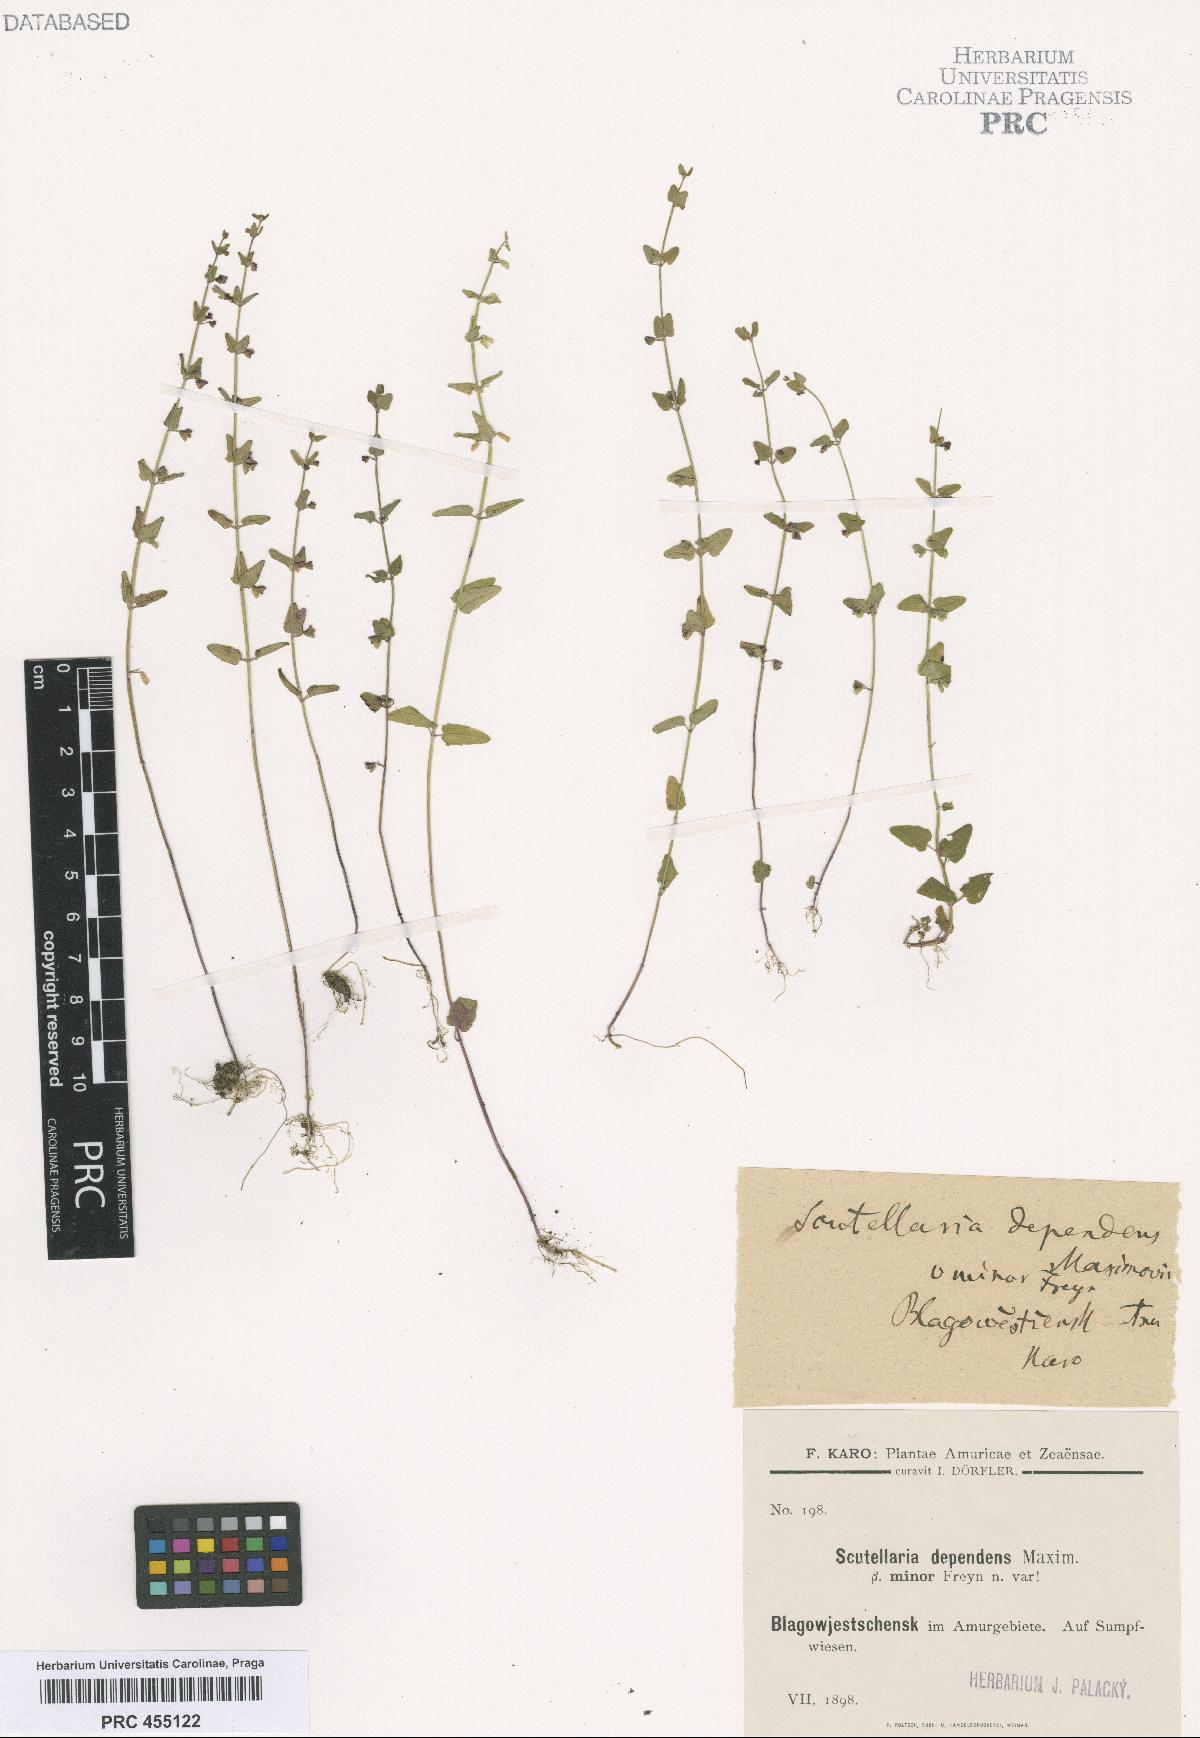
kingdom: Plantae
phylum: Tracheophyta
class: Magnoliopsida
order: Lamiales
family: Lamiaceae
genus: Scutellaria
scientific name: Scutellaria dependens
